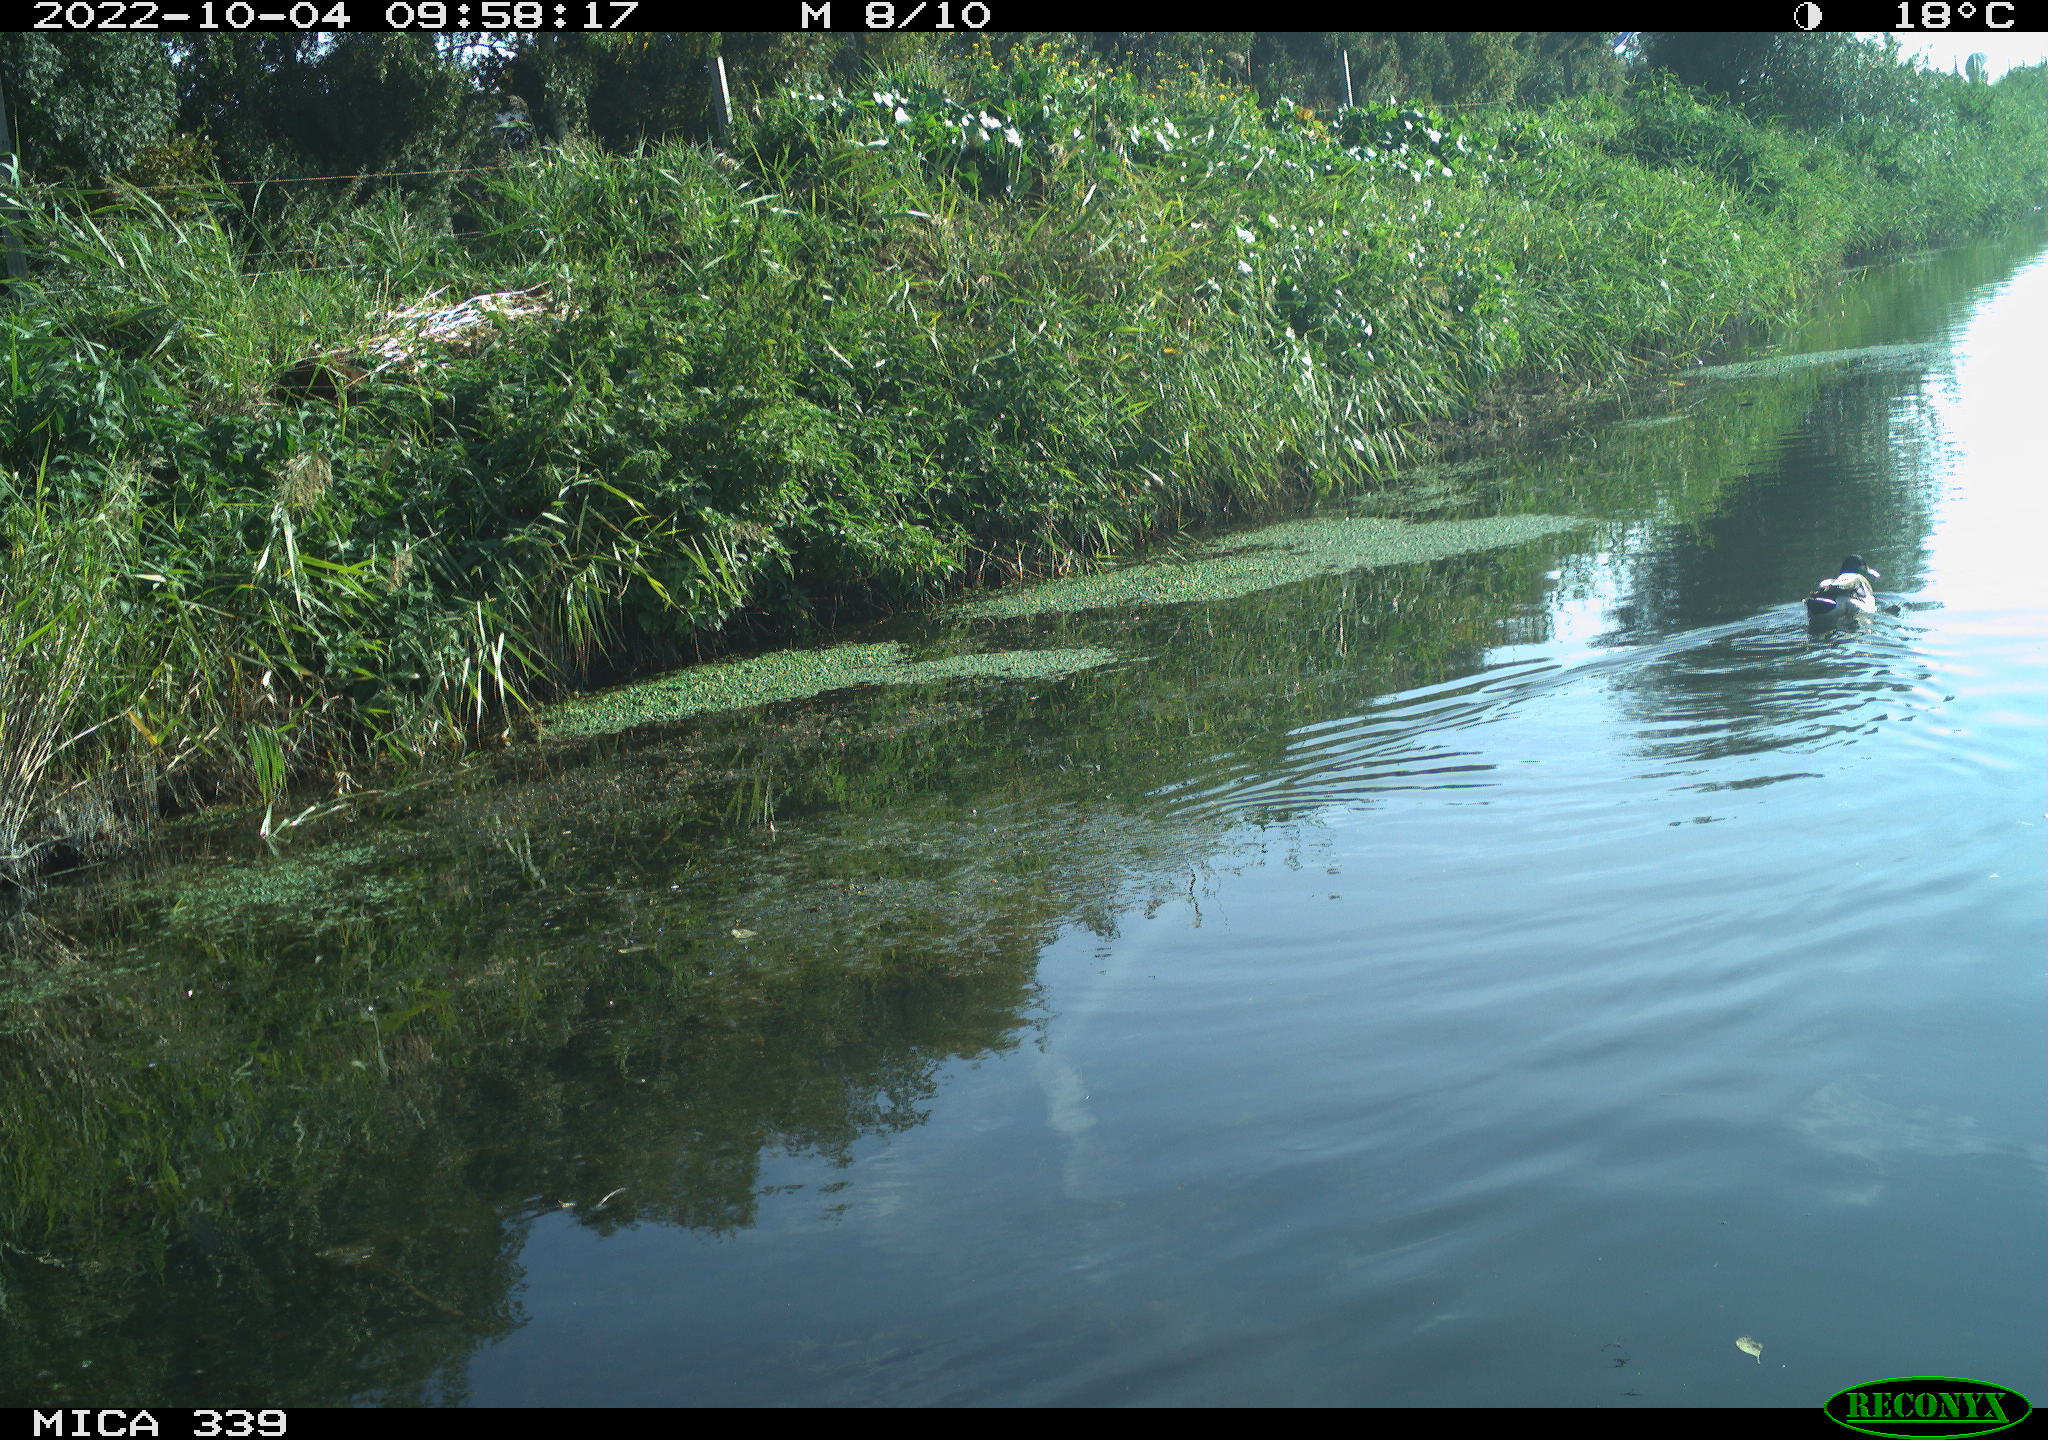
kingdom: Animalia
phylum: Chordata
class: Aves
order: Anseriformes
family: Anatidae
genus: Anas
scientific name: Anas platyrhynchos
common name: Mallard
